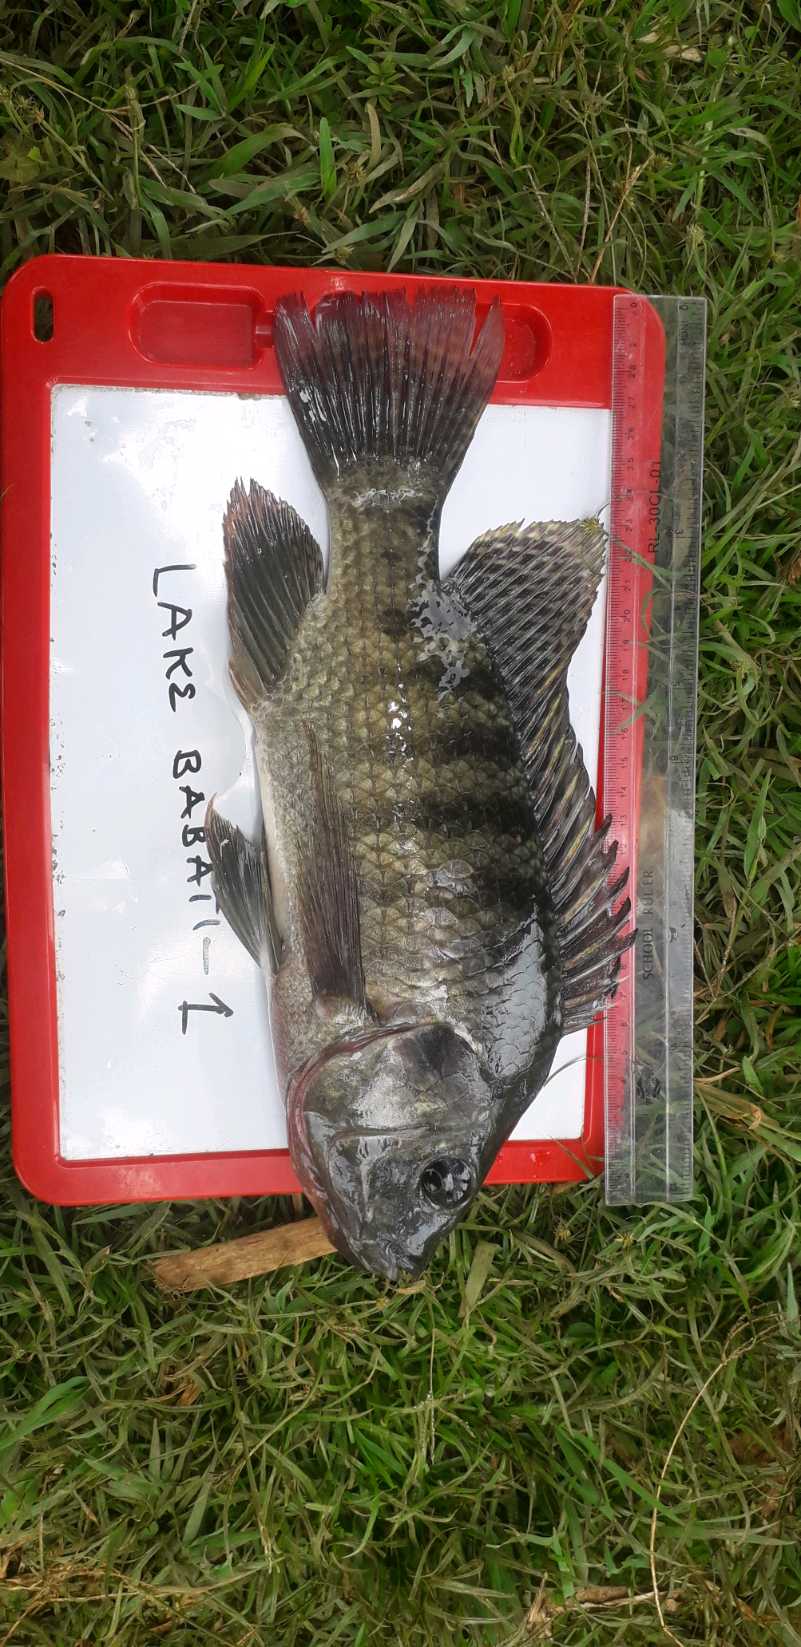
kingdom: Animalia
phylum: Chordata
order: Perciformes
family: Cichlidae
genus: Oreochromis
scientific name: Oreochromis
